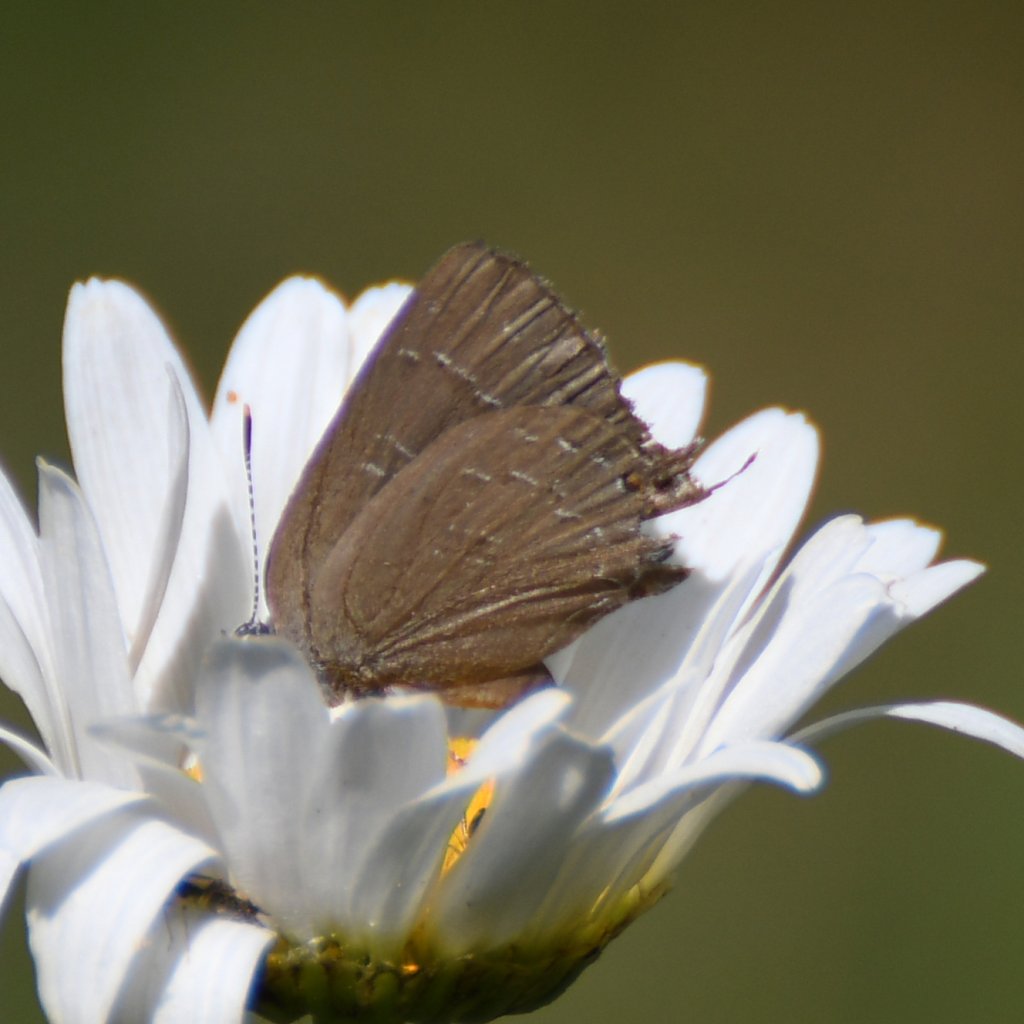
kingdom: Animalia
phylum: Arthropoda
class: Insecta
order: Lepidoptera
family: Lycaenidae
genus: Satyrium
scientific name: Satyrium calanus
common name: Banded Hairstreak
